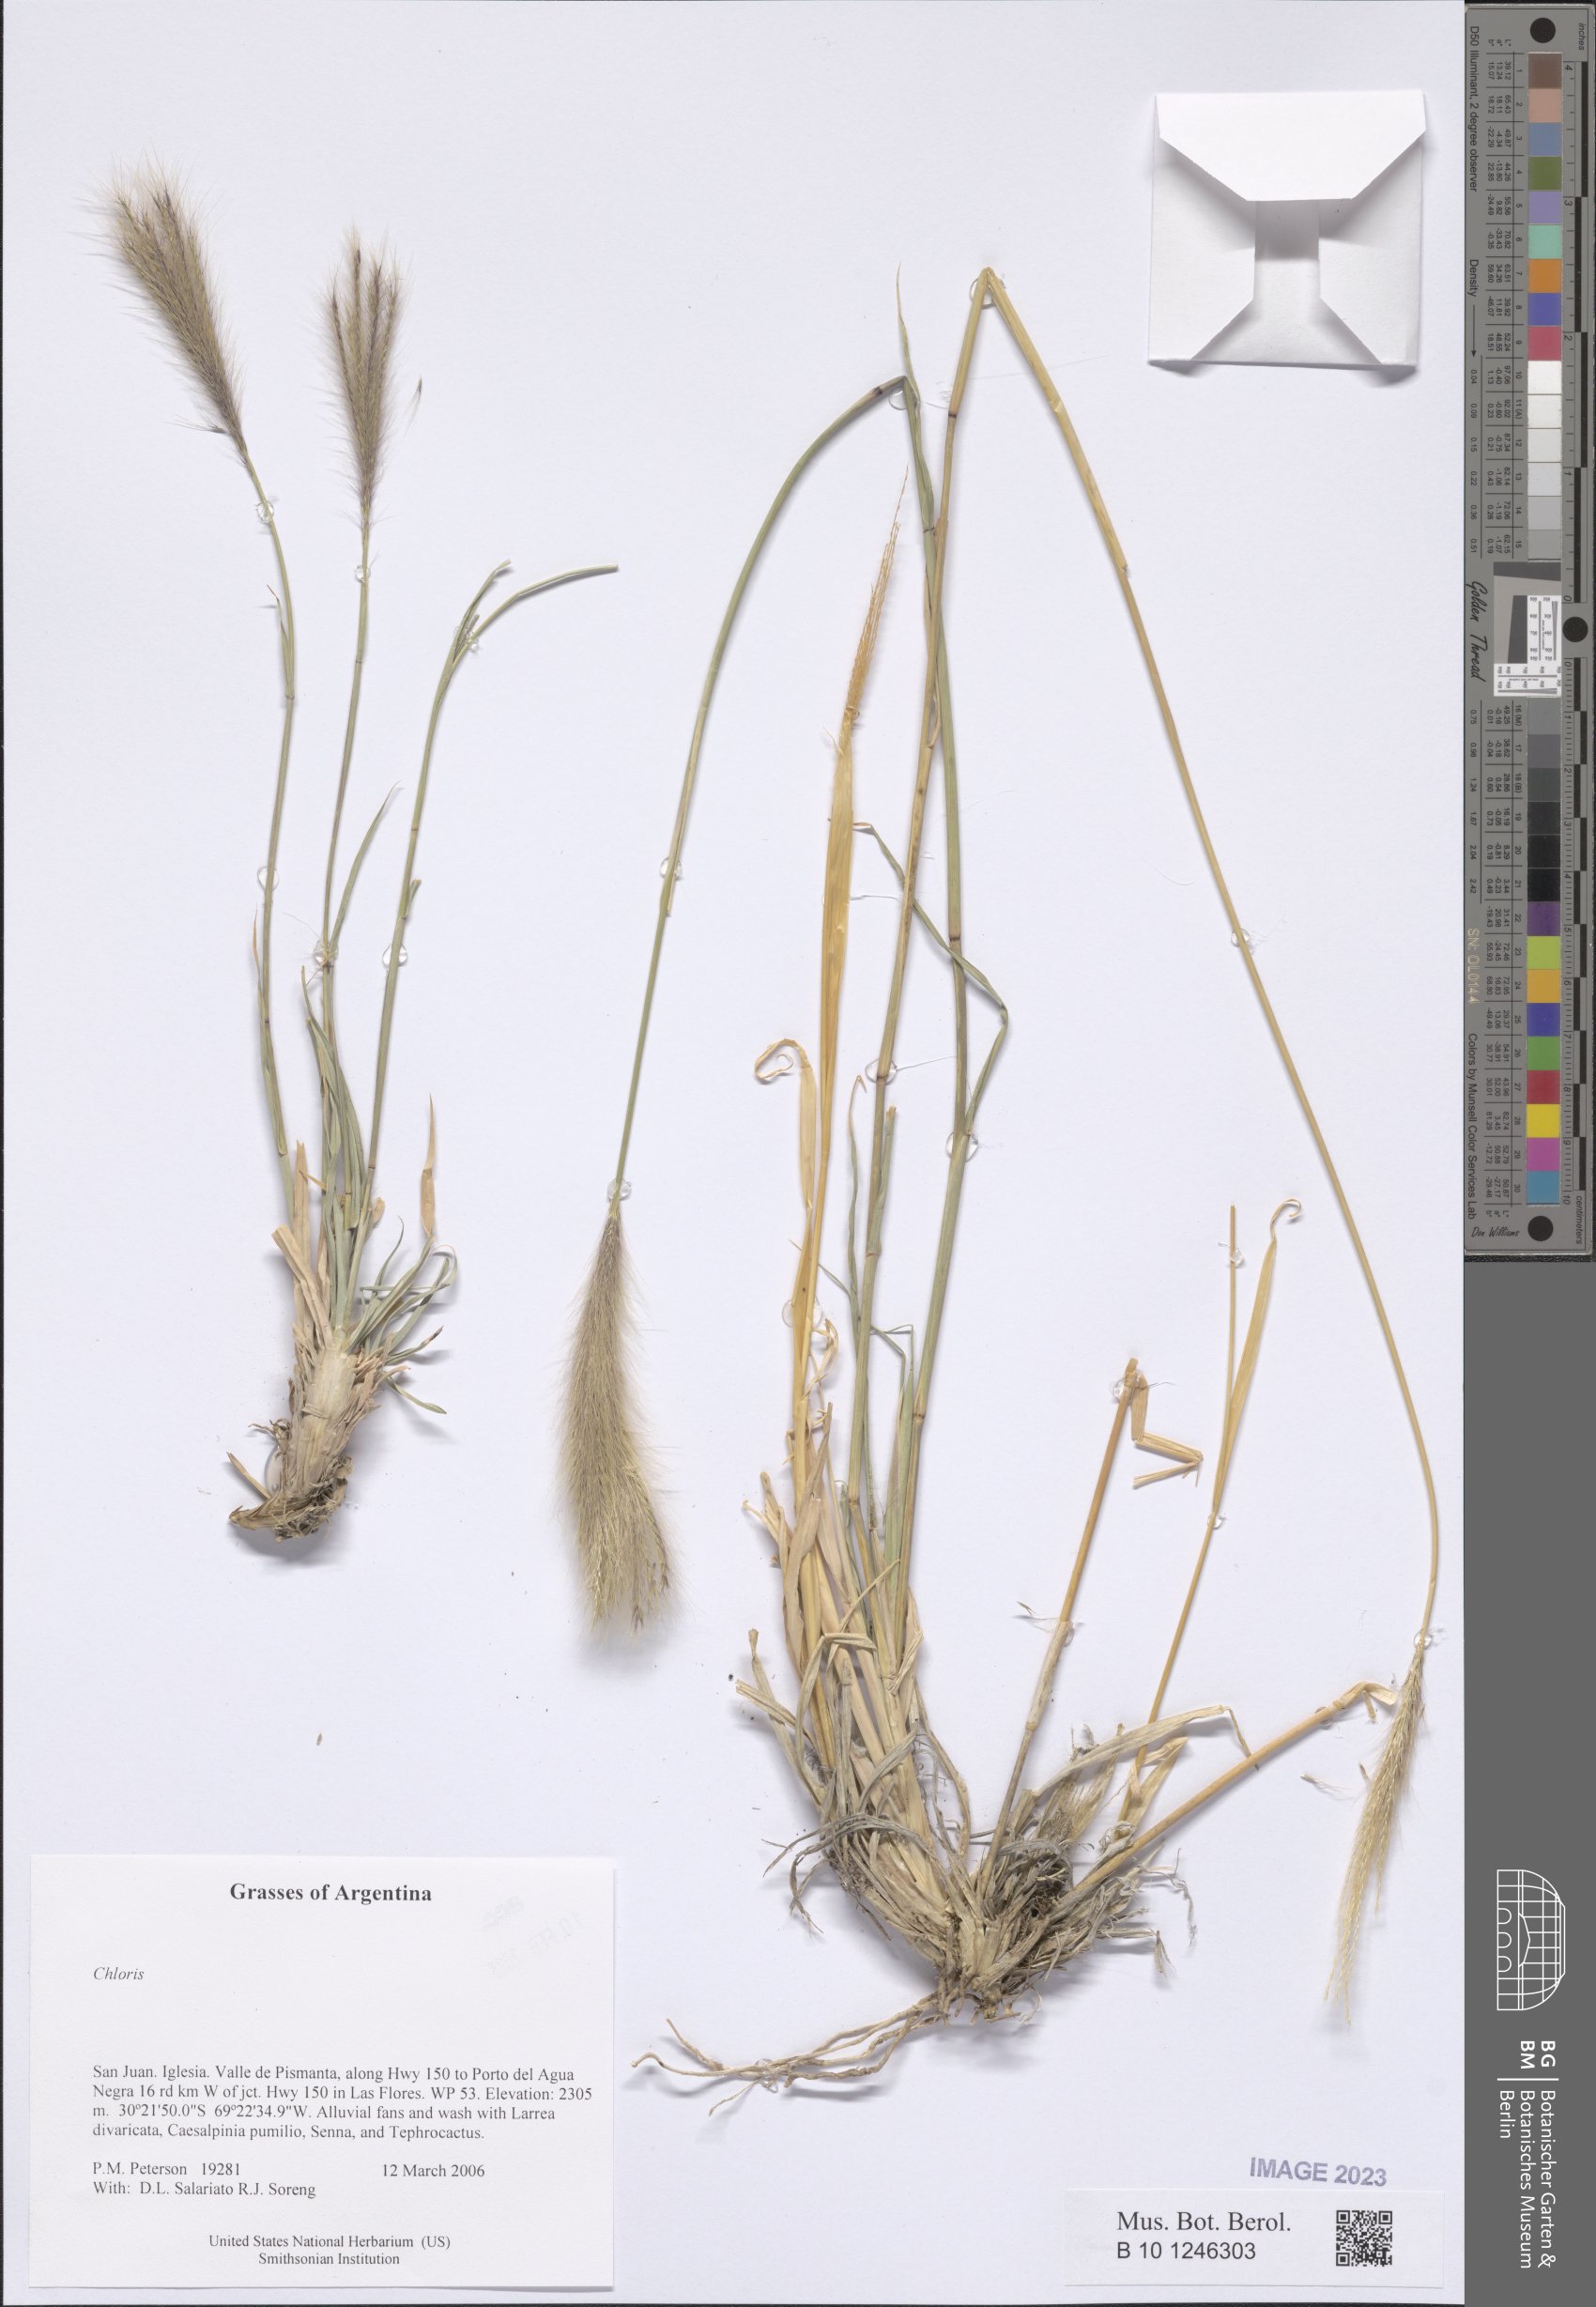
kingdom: Plantae
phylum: Tracheophyta
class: Liliopsida
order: Poales
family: Poaceae
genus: Chloris
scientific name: Chloris
